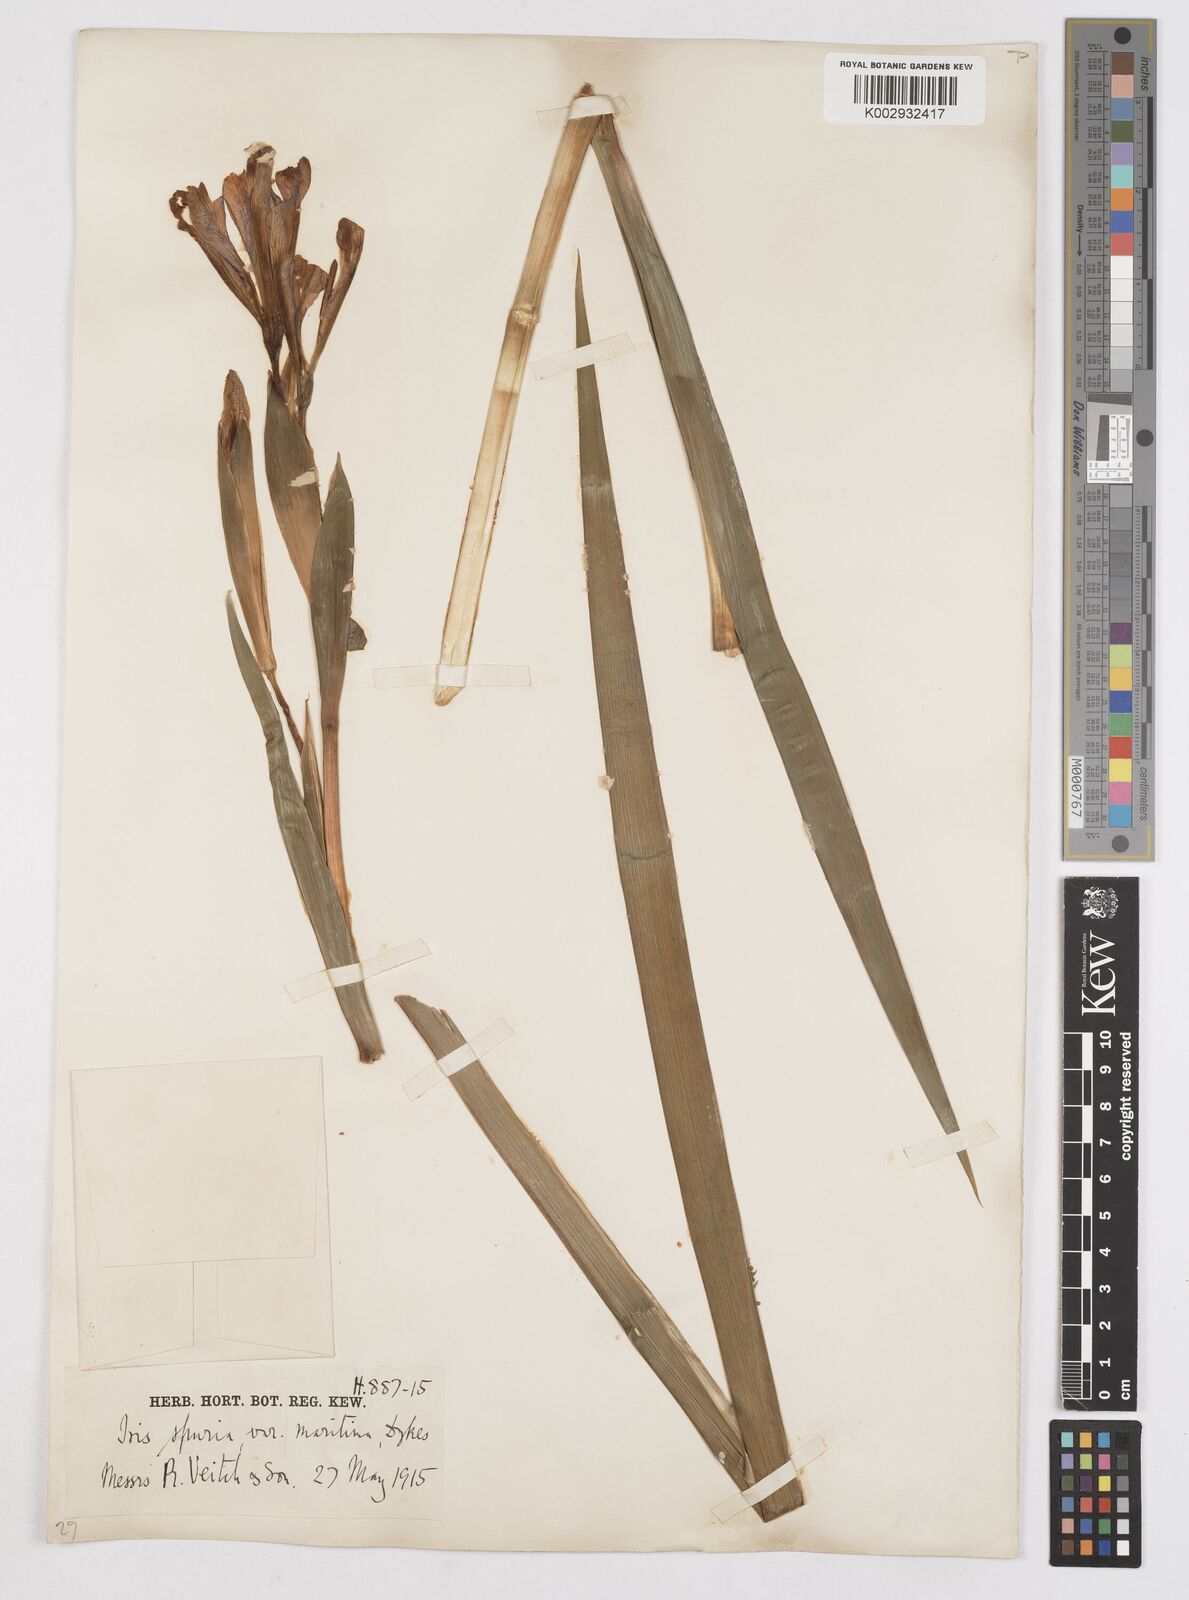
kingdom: Plantae
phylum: Tracheophyta
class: Liliopsida
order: Asparagales
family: Iridaceae
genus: Iris
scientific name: Iris spuria
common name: Blue iris
